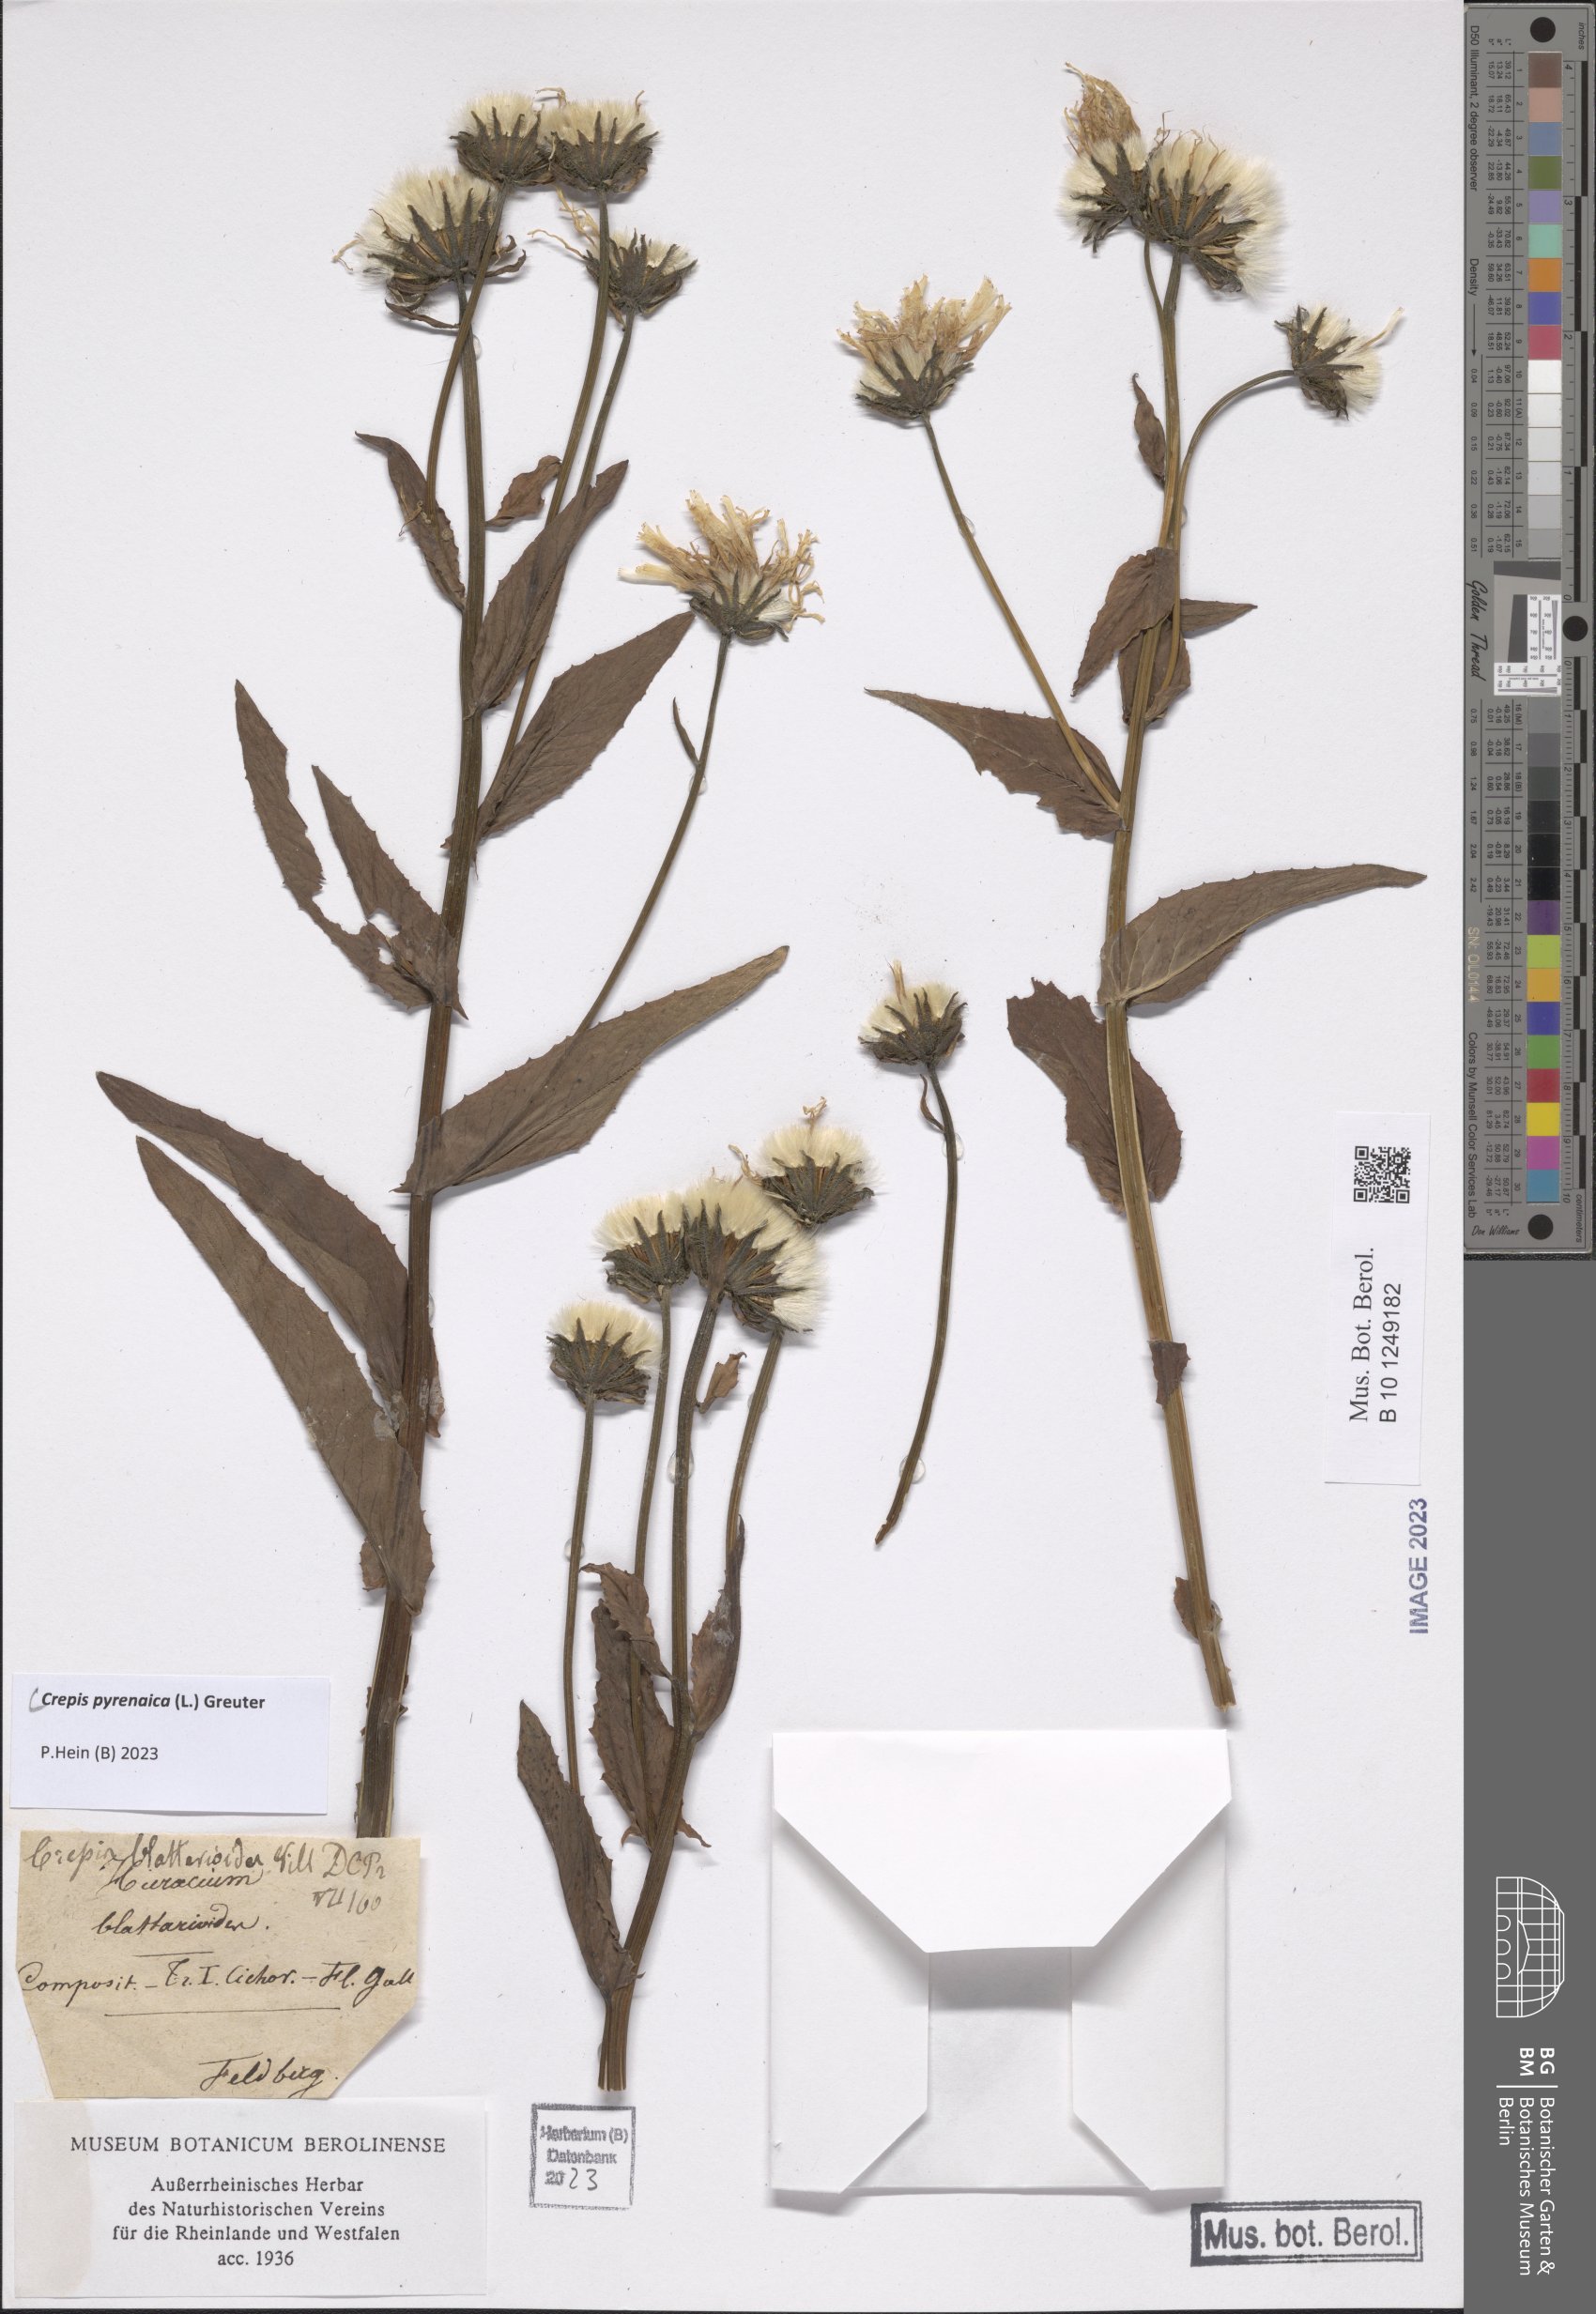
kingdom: Plantae
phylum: Tracheophyta
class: Magnoliopsida
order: Asterales
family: Asteraceae
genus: Crepis
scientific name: Crepis pyrenaica
